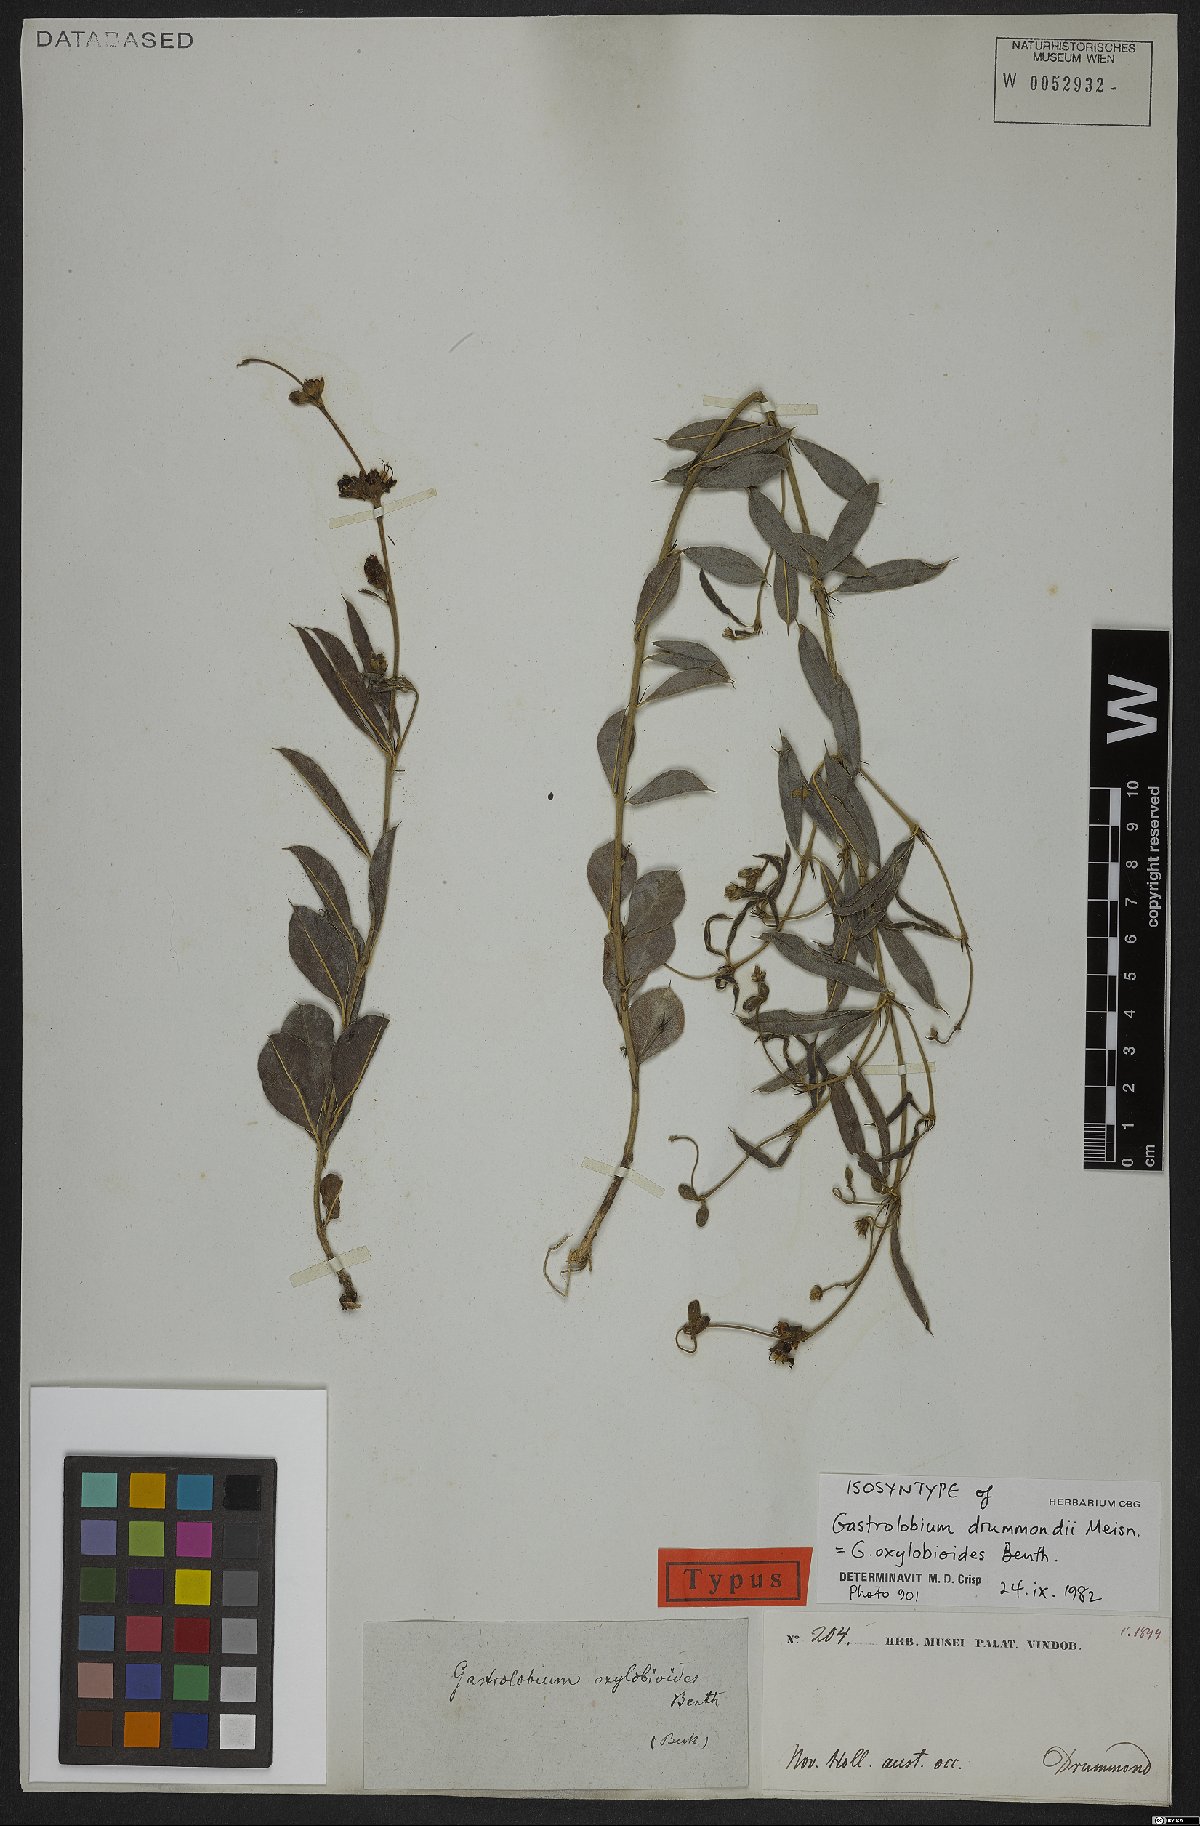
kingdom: Plantae
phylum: Tracheophyta
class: Magnoliopsida
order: Fabales
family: Fabaceae
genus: Gastrolobium
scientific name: Gastrolobium oxylobioides
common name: Champion bay poison
